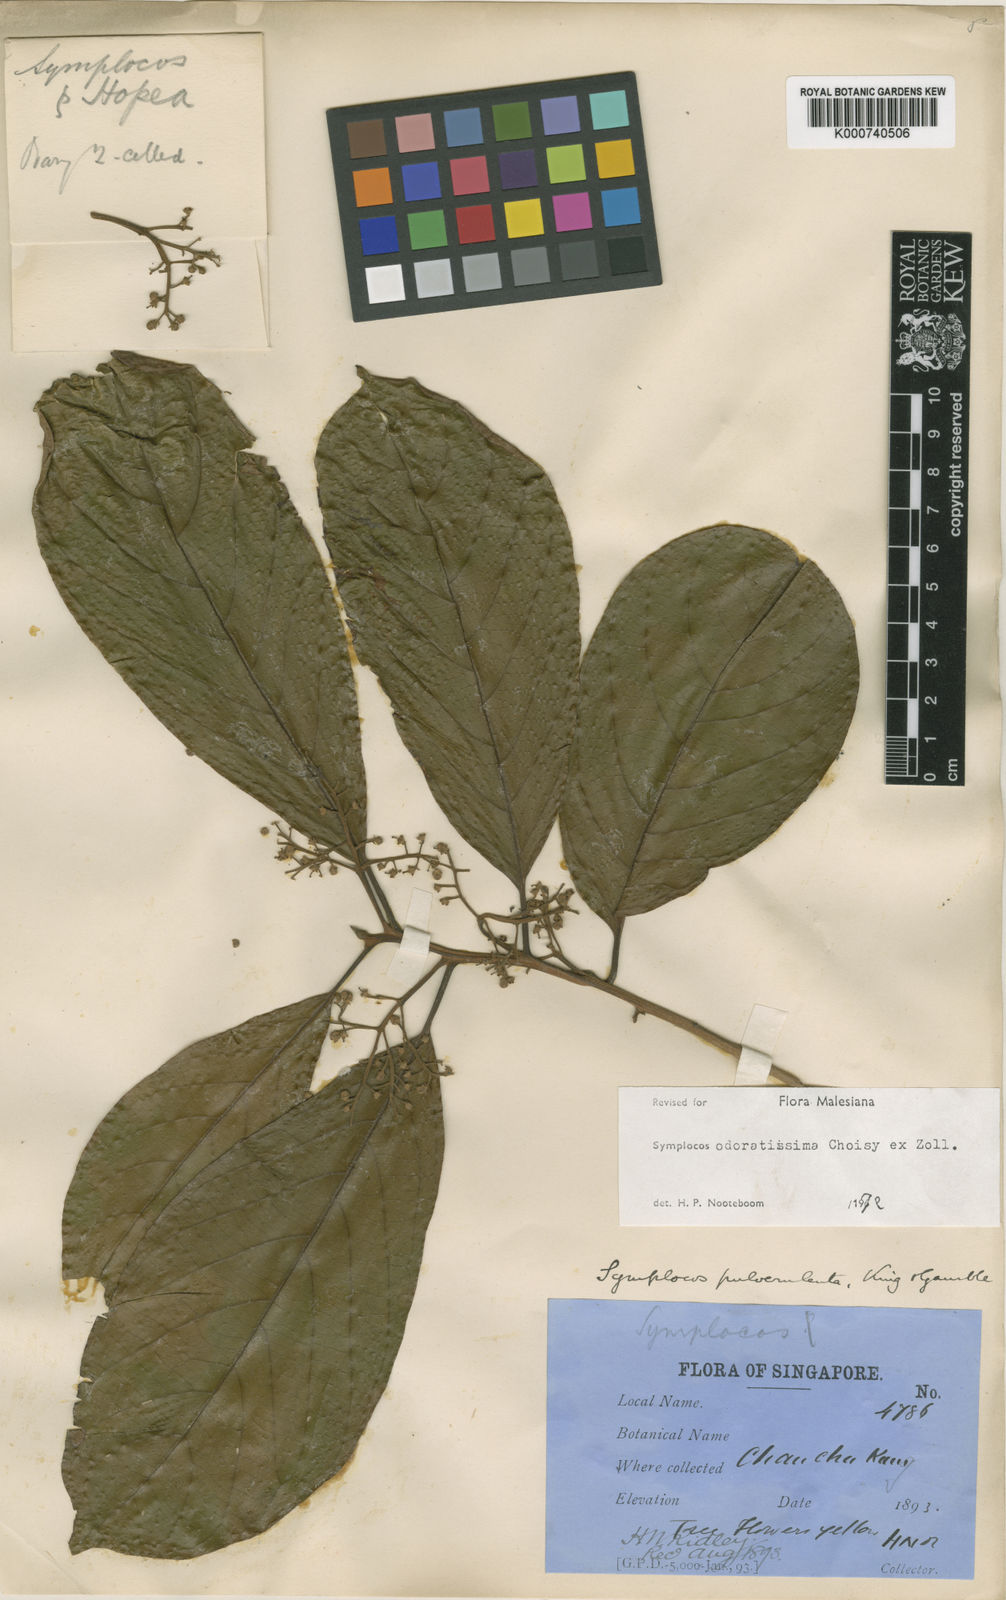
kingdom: Plantae
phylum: Tracheophyta
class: Magnoliopsida
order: Ericales
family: Symplocaceae
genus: Symplocos
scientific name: Symplocos odoratissima
